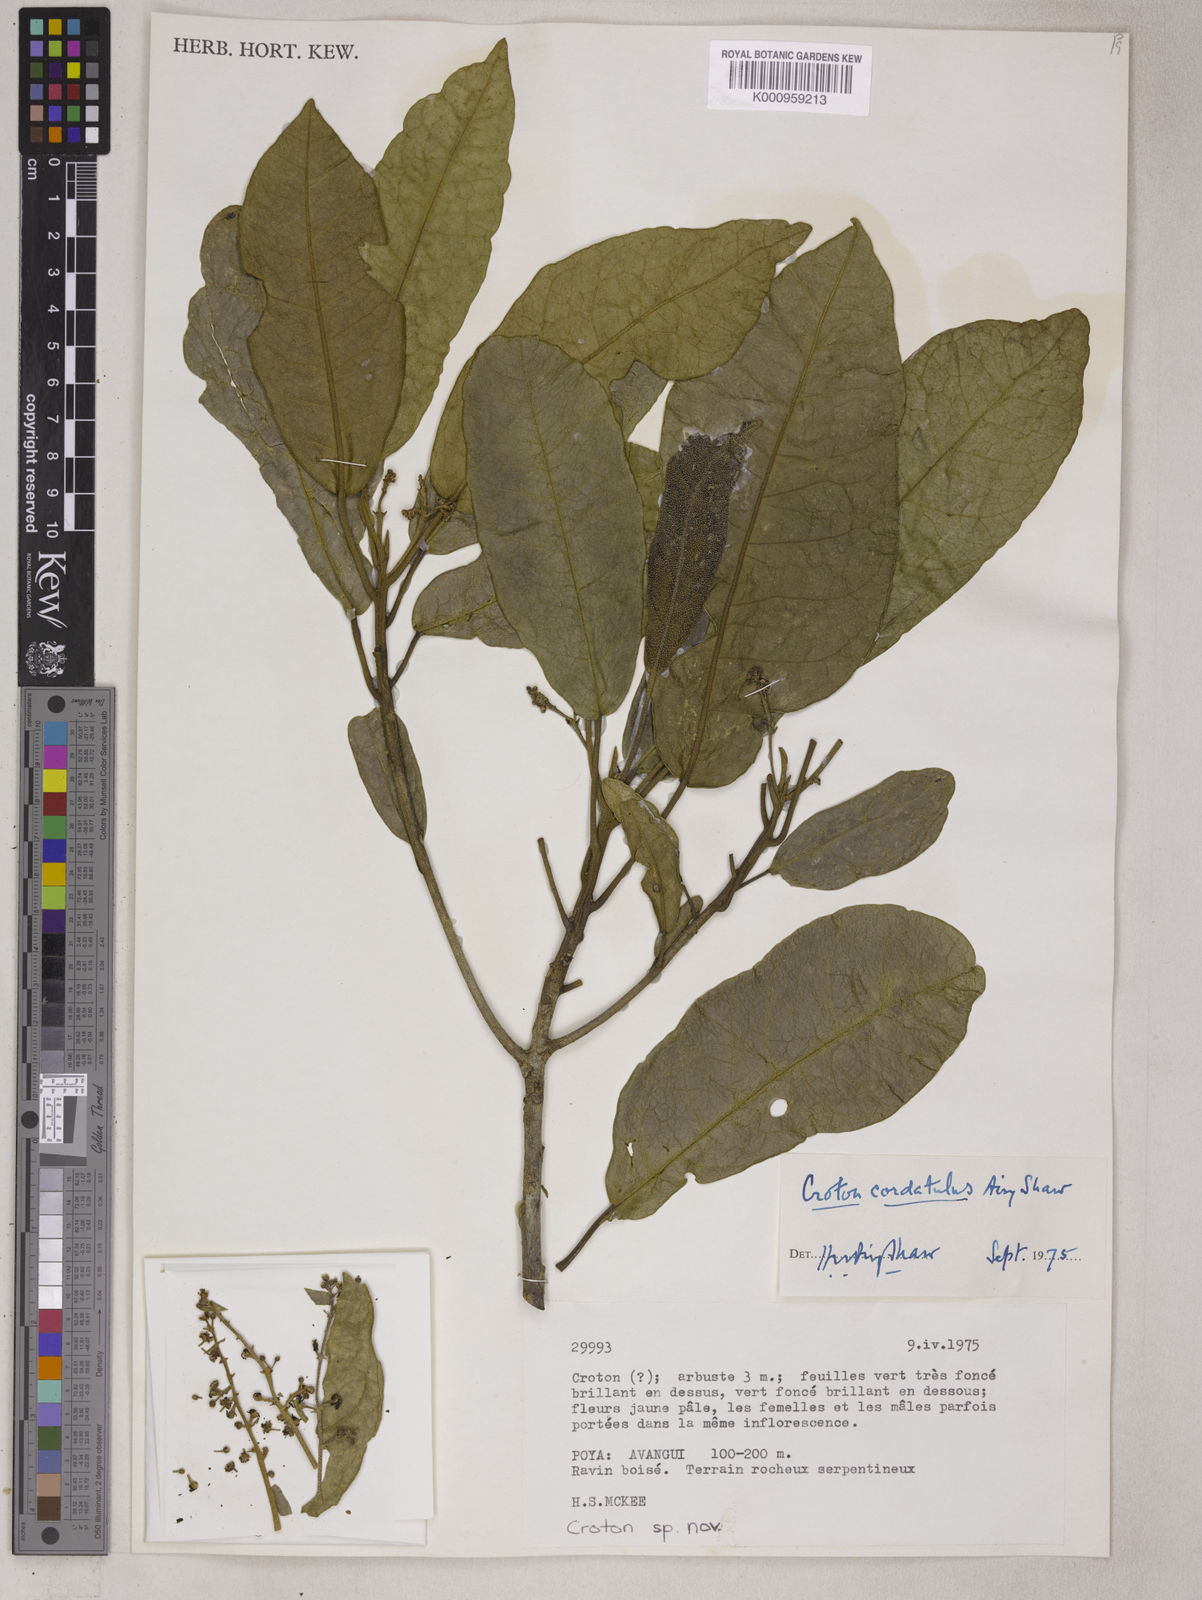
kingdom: Plantae
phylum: Tracheophyta
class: Magnoliopsida
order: Malpighiales
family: Euphorbiaceae
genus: Croton
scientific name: Croton cordatulus
